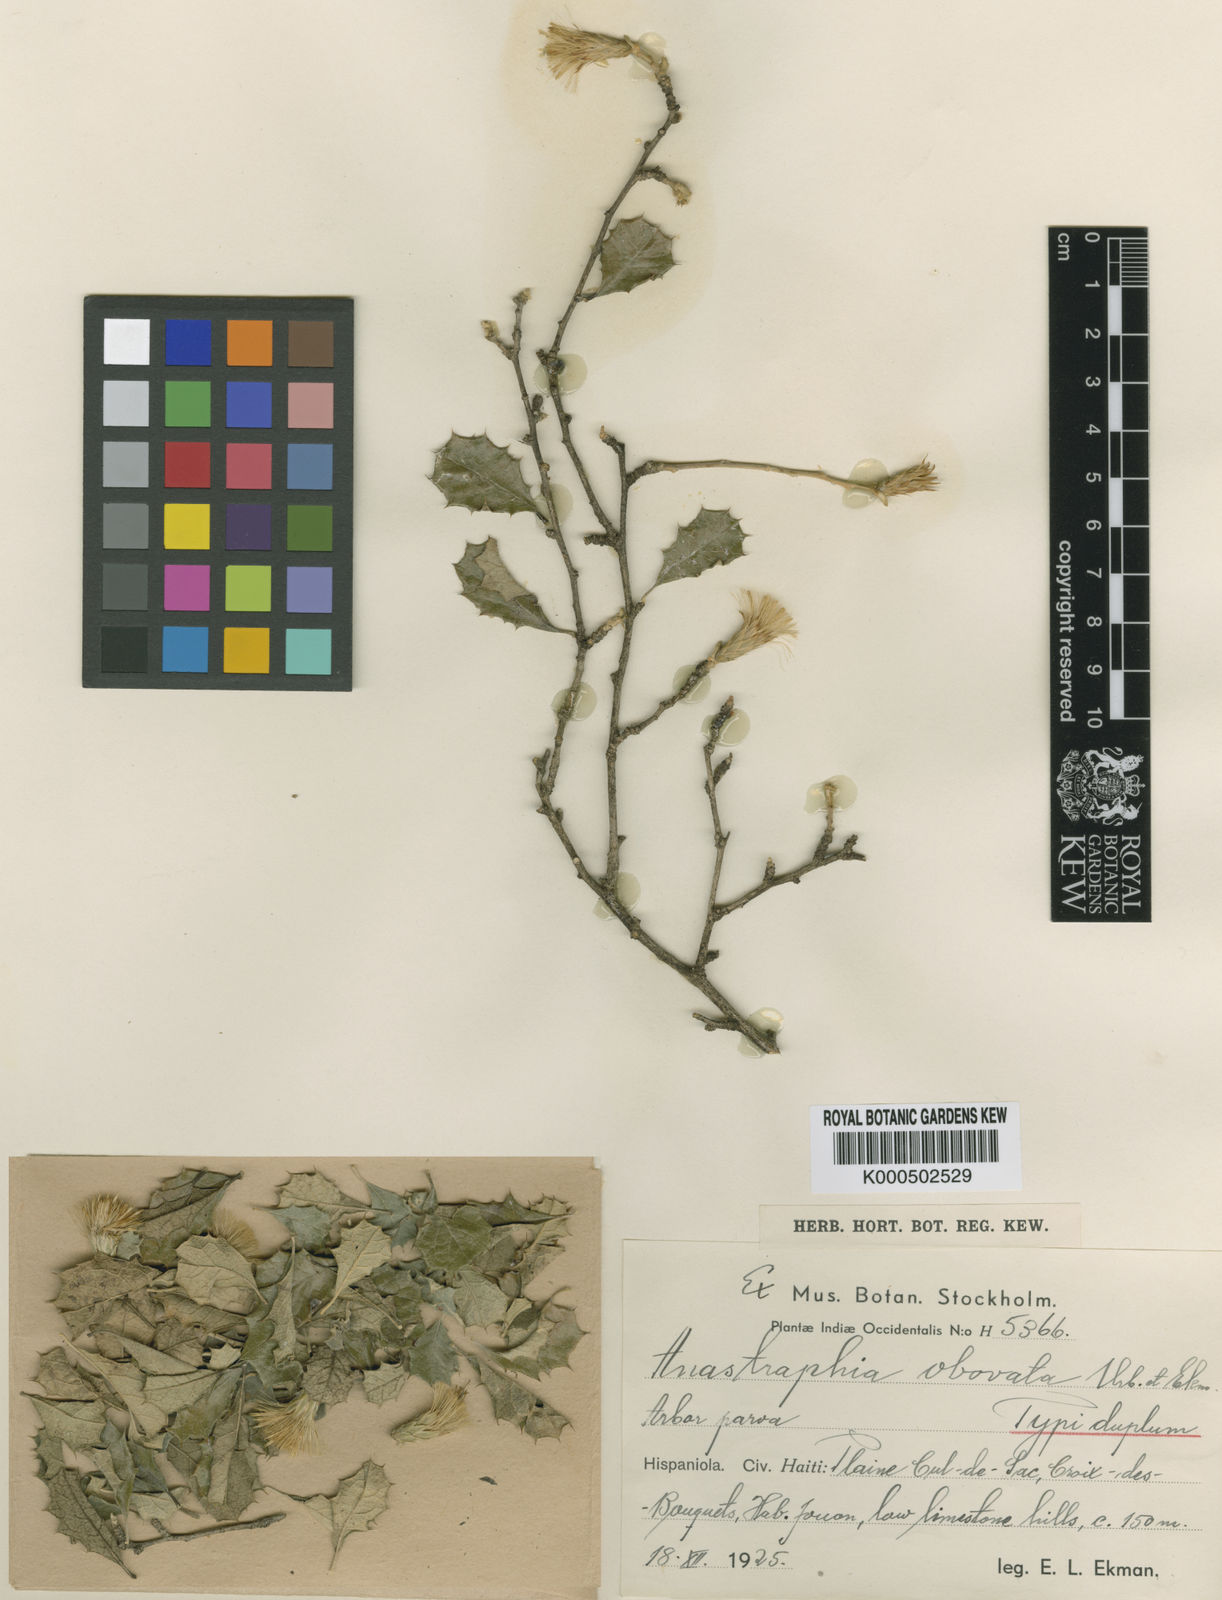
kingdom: Plantae
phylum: Tracheophyta
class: Magnoliopsida
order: Asterales
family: Asteraceae
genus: Anastraphia
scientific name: Anastraphia obovata
